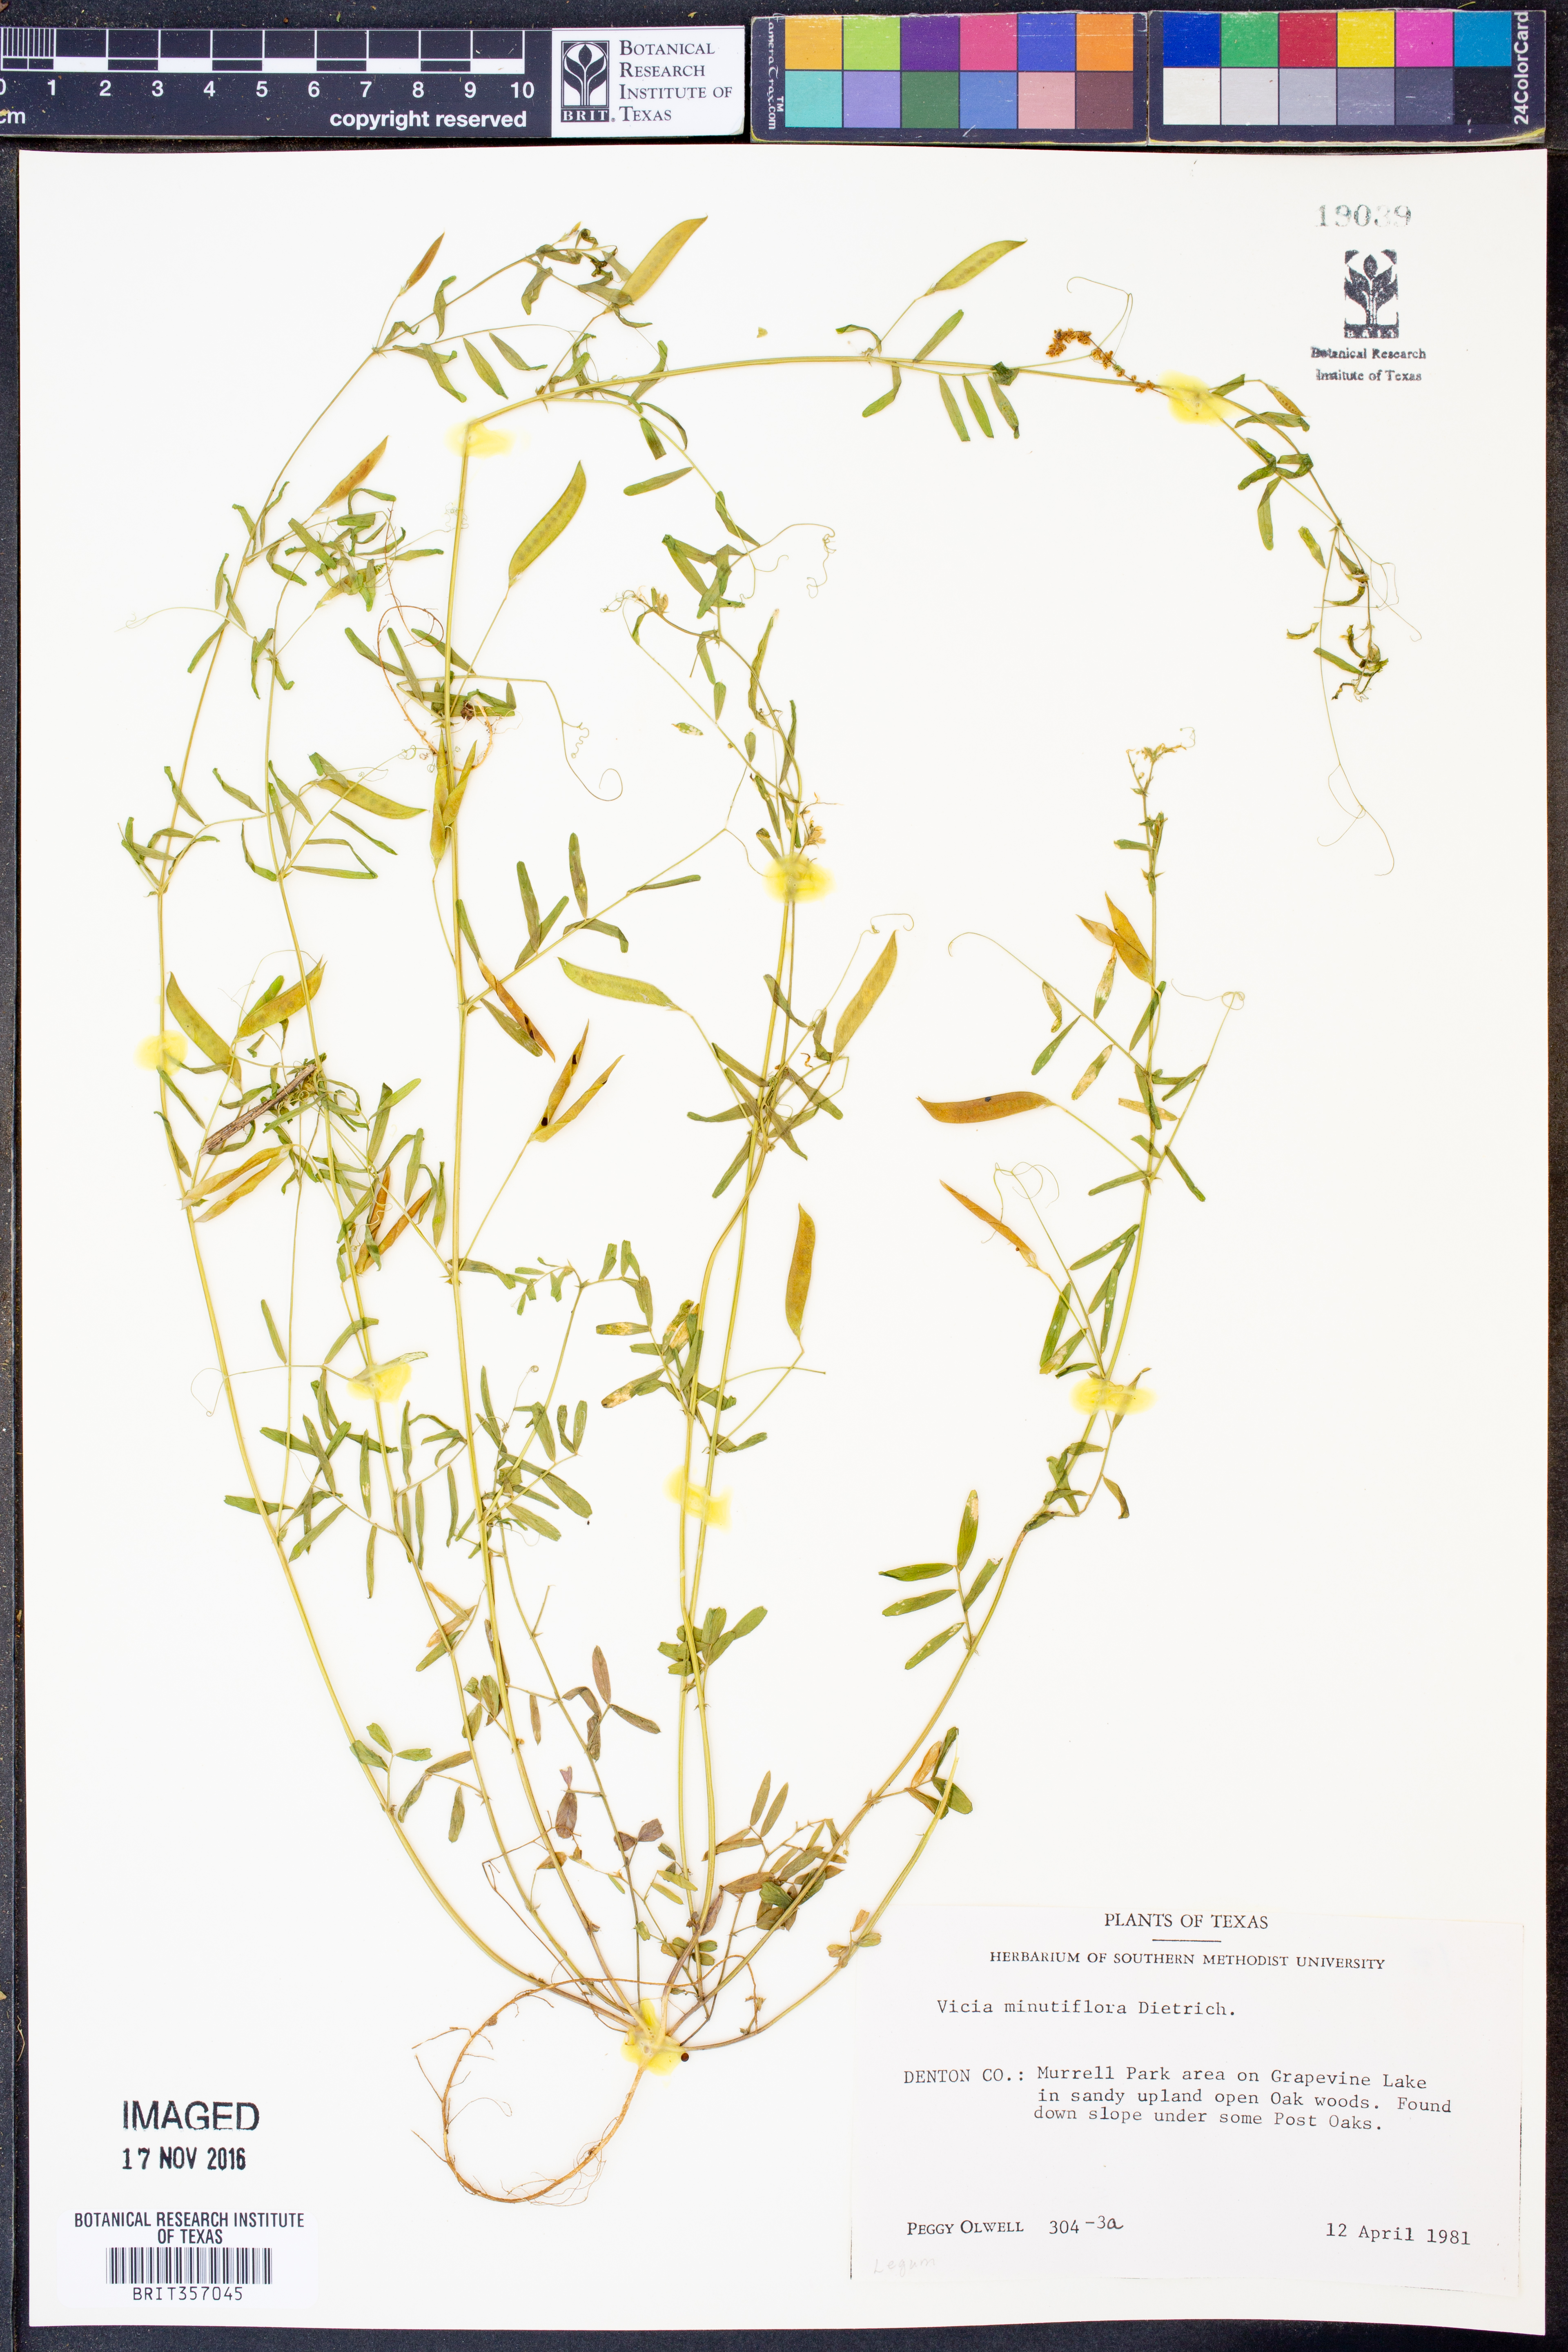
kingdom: Plantae
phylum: Tracheophyta
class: Magnoliopsida
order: Fabales
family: Fabaceae
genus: Vicia
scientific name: Vicia minutiflora
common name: Pygmy-flower vetch
